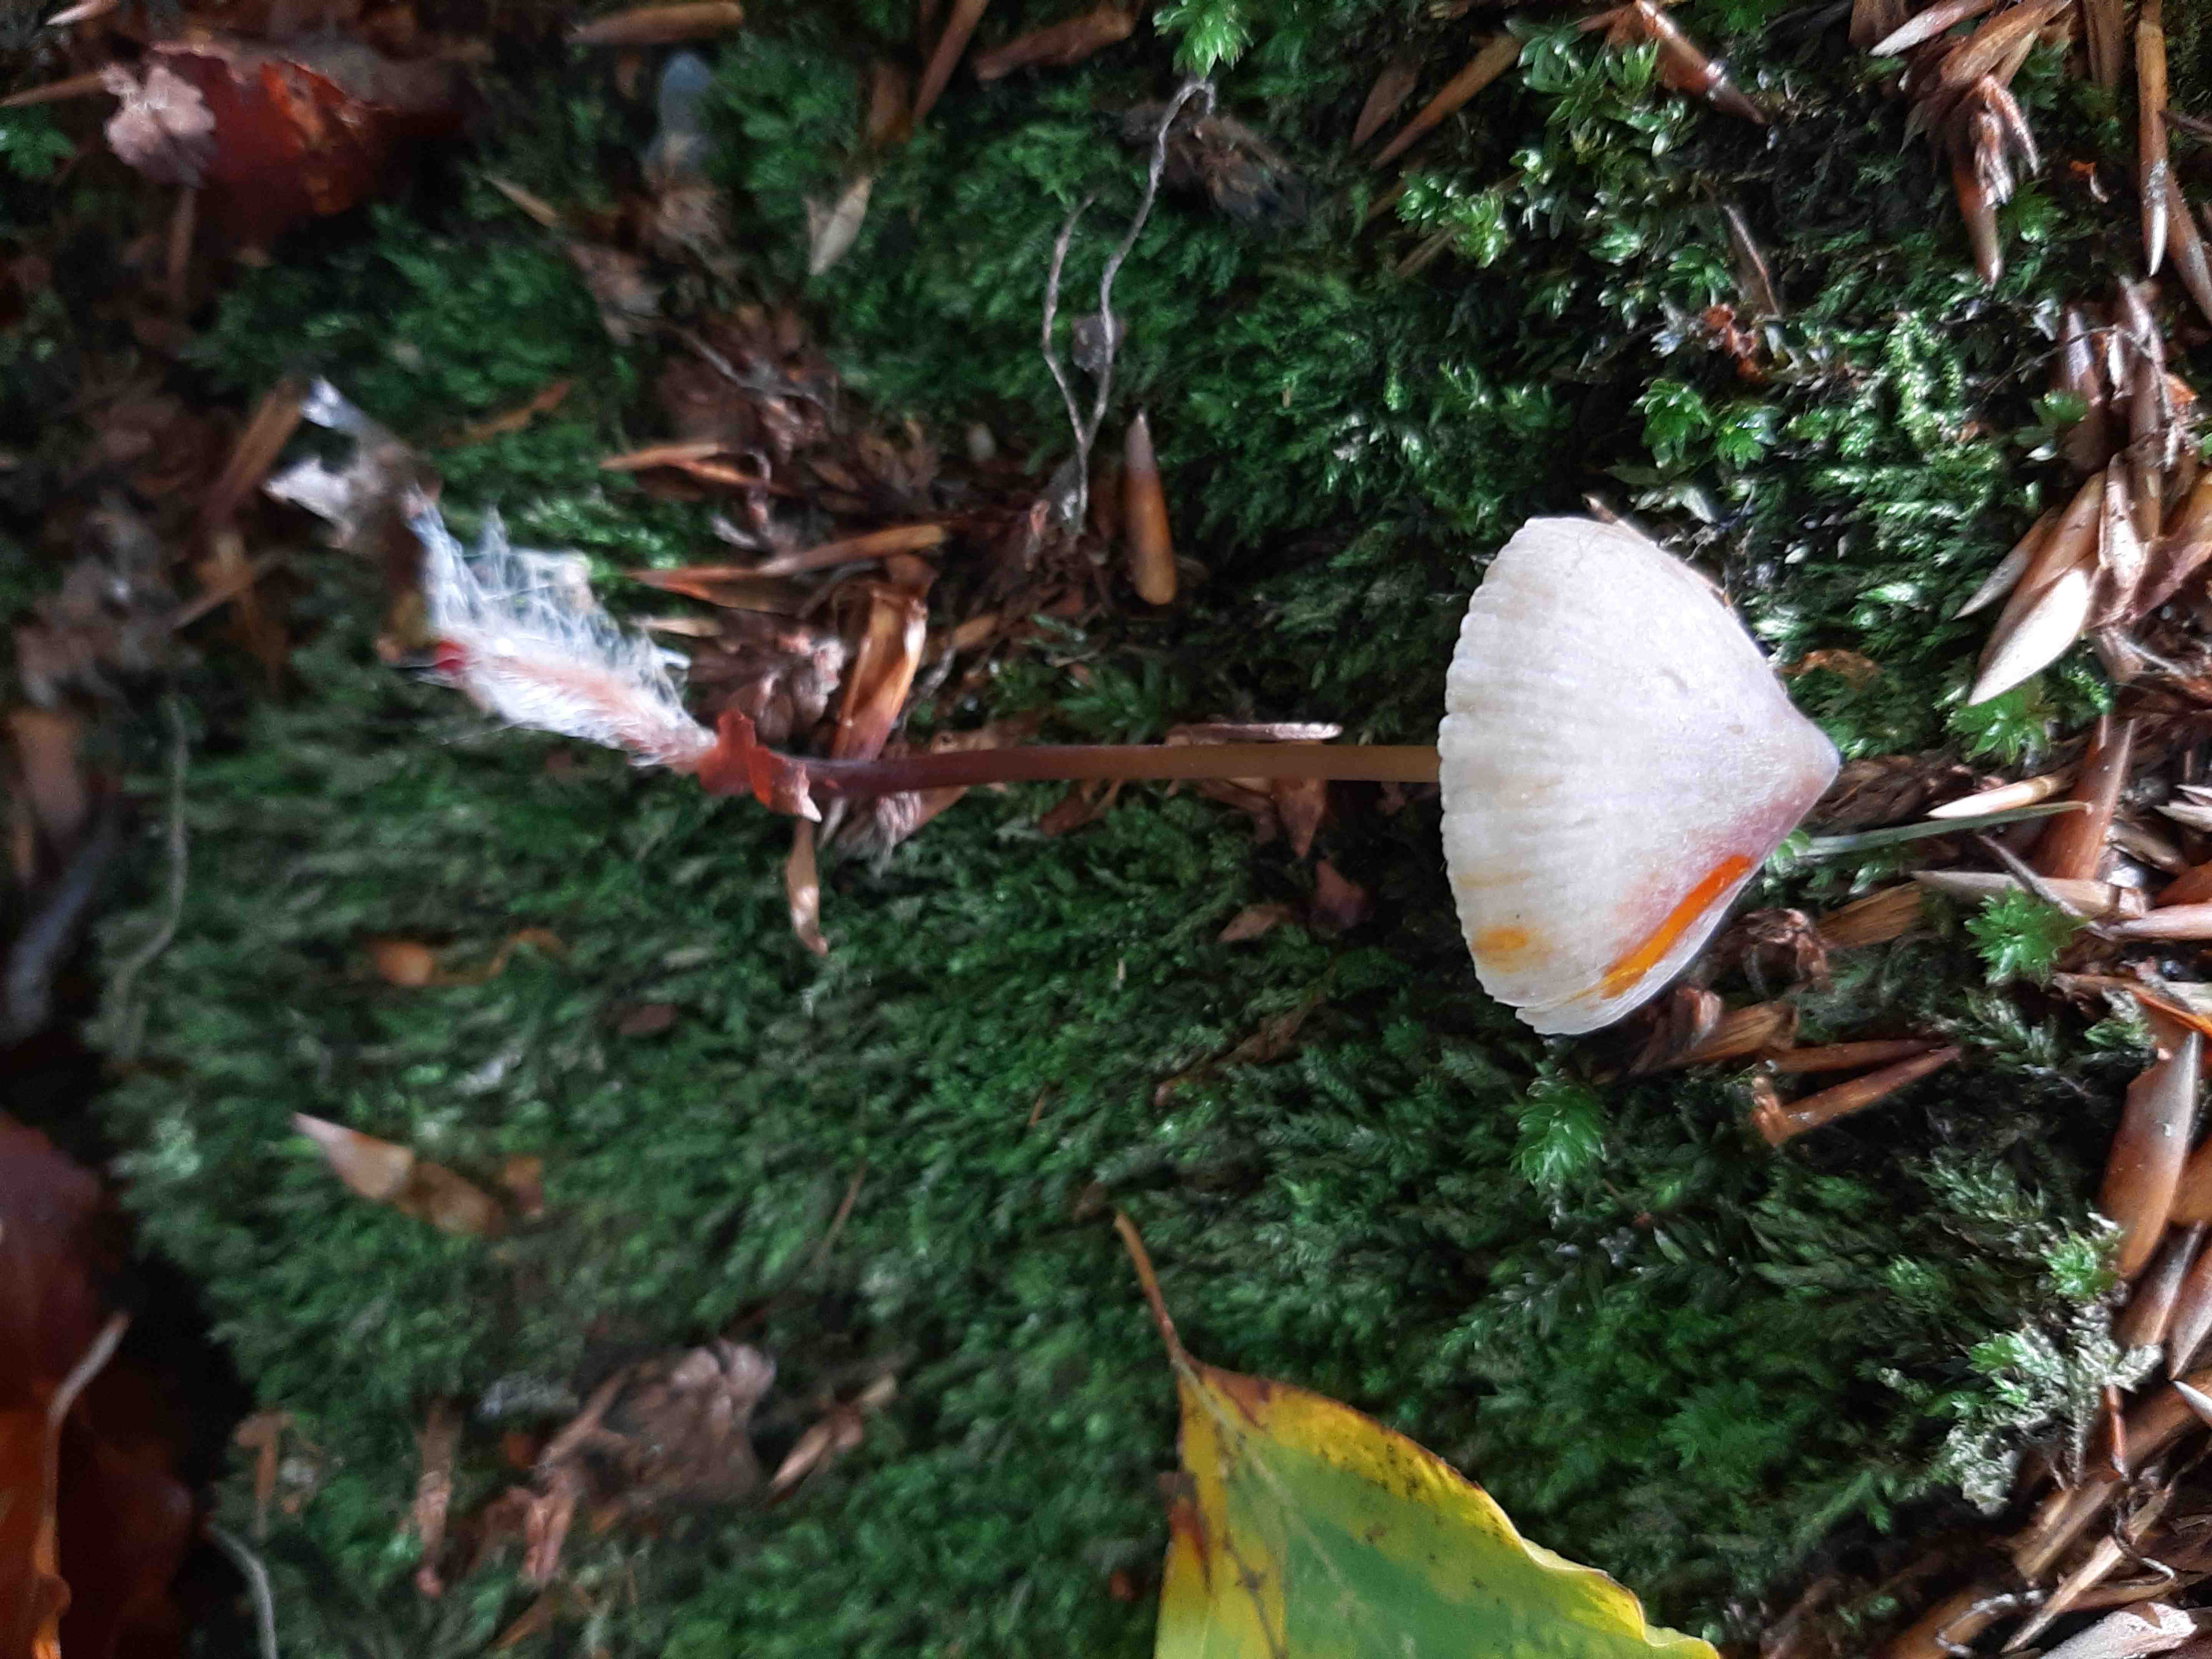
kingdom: Fungi
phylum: Basidiomycota
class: Agaricomycetes
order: Agaricales
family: Mycenaceae
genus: Mycena
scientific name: Mycena crocata
